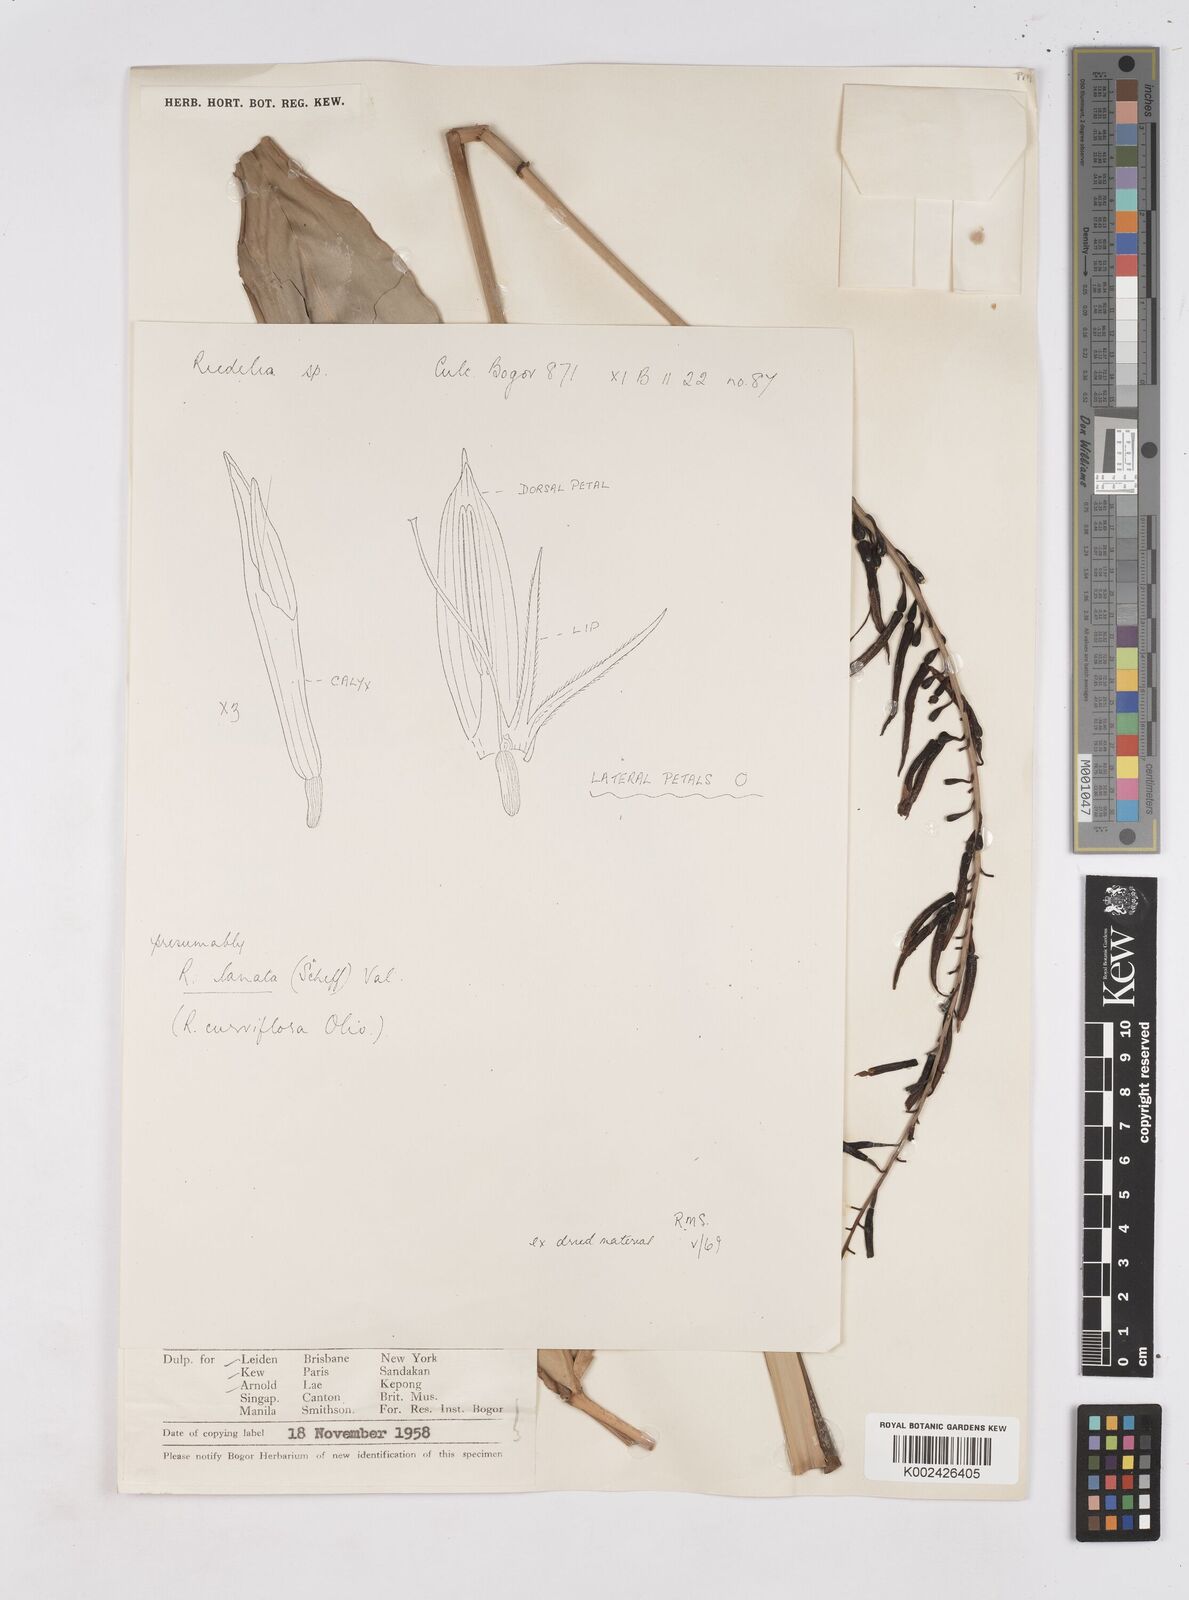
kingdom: Plantae
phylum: Tracheophyta
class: Liliopsida
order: Zingiberales
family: Zingiberaceae
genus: Riedelia
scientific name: Riedelia lanata
